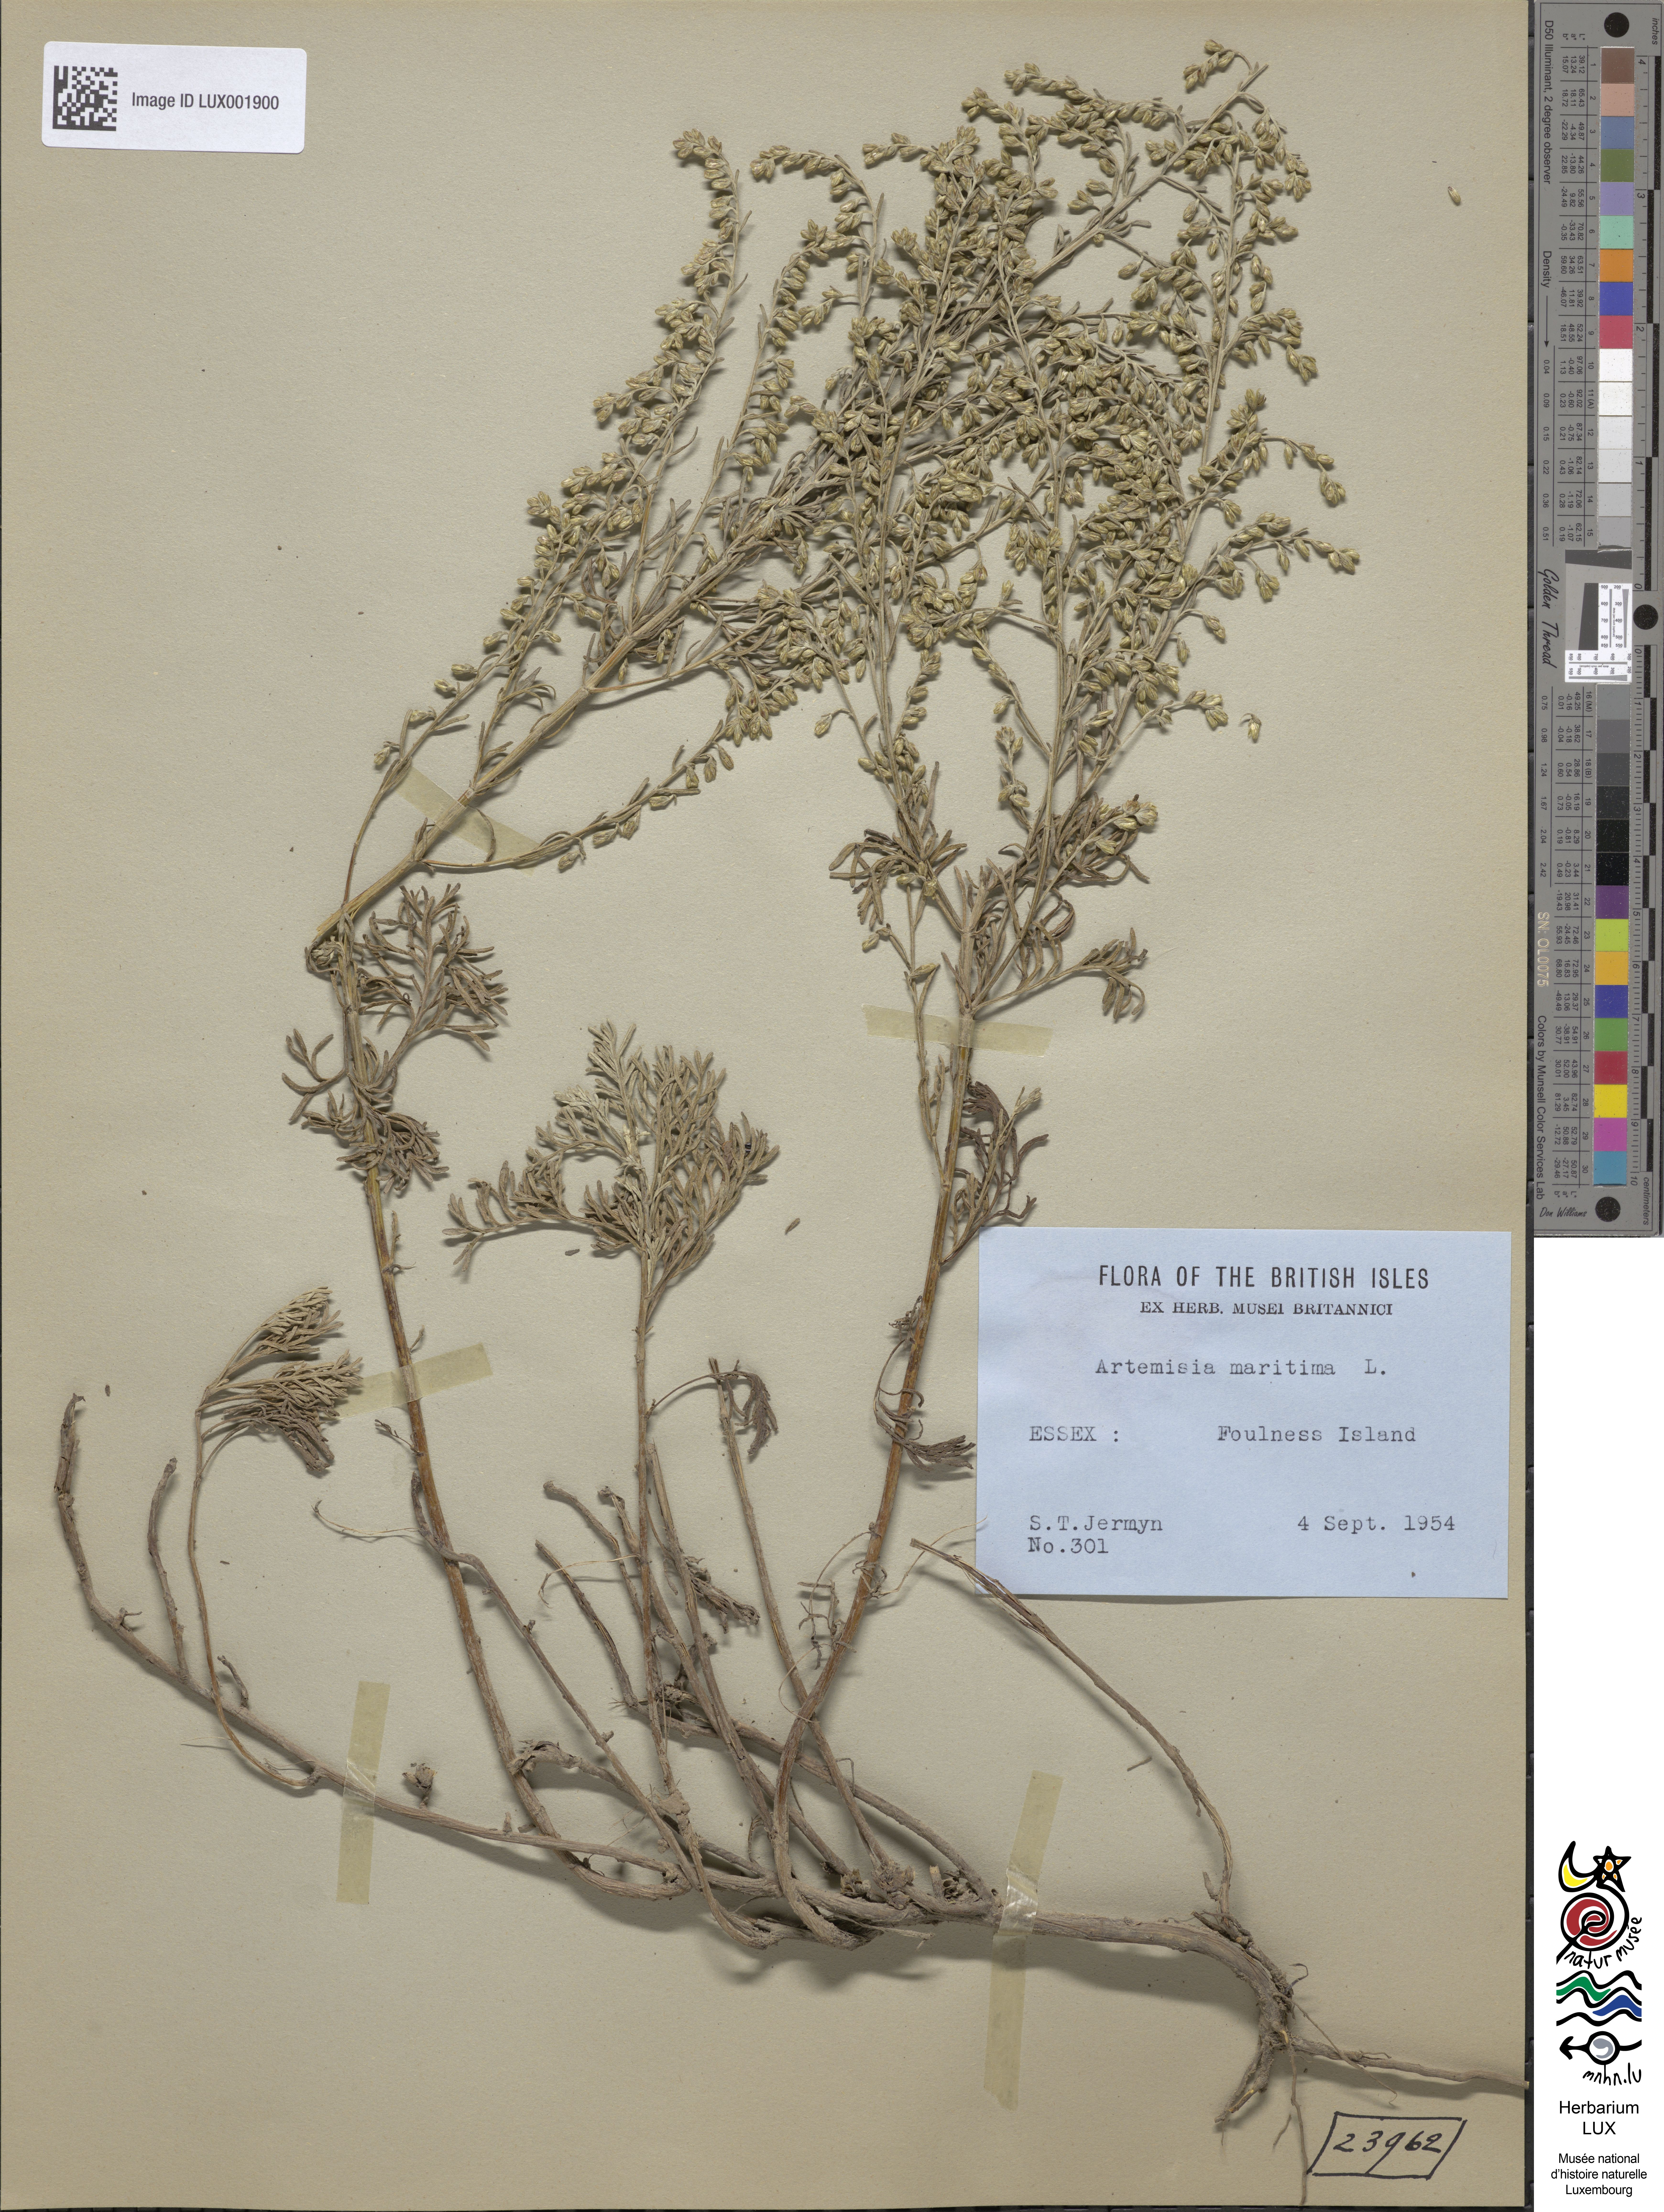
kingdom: Plantae
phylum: Tracheophyta
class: Magnoliopsida
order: Asterales
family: Asteraceae
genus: Artemisia
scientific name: Artemisia maritima
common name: Wormseed
